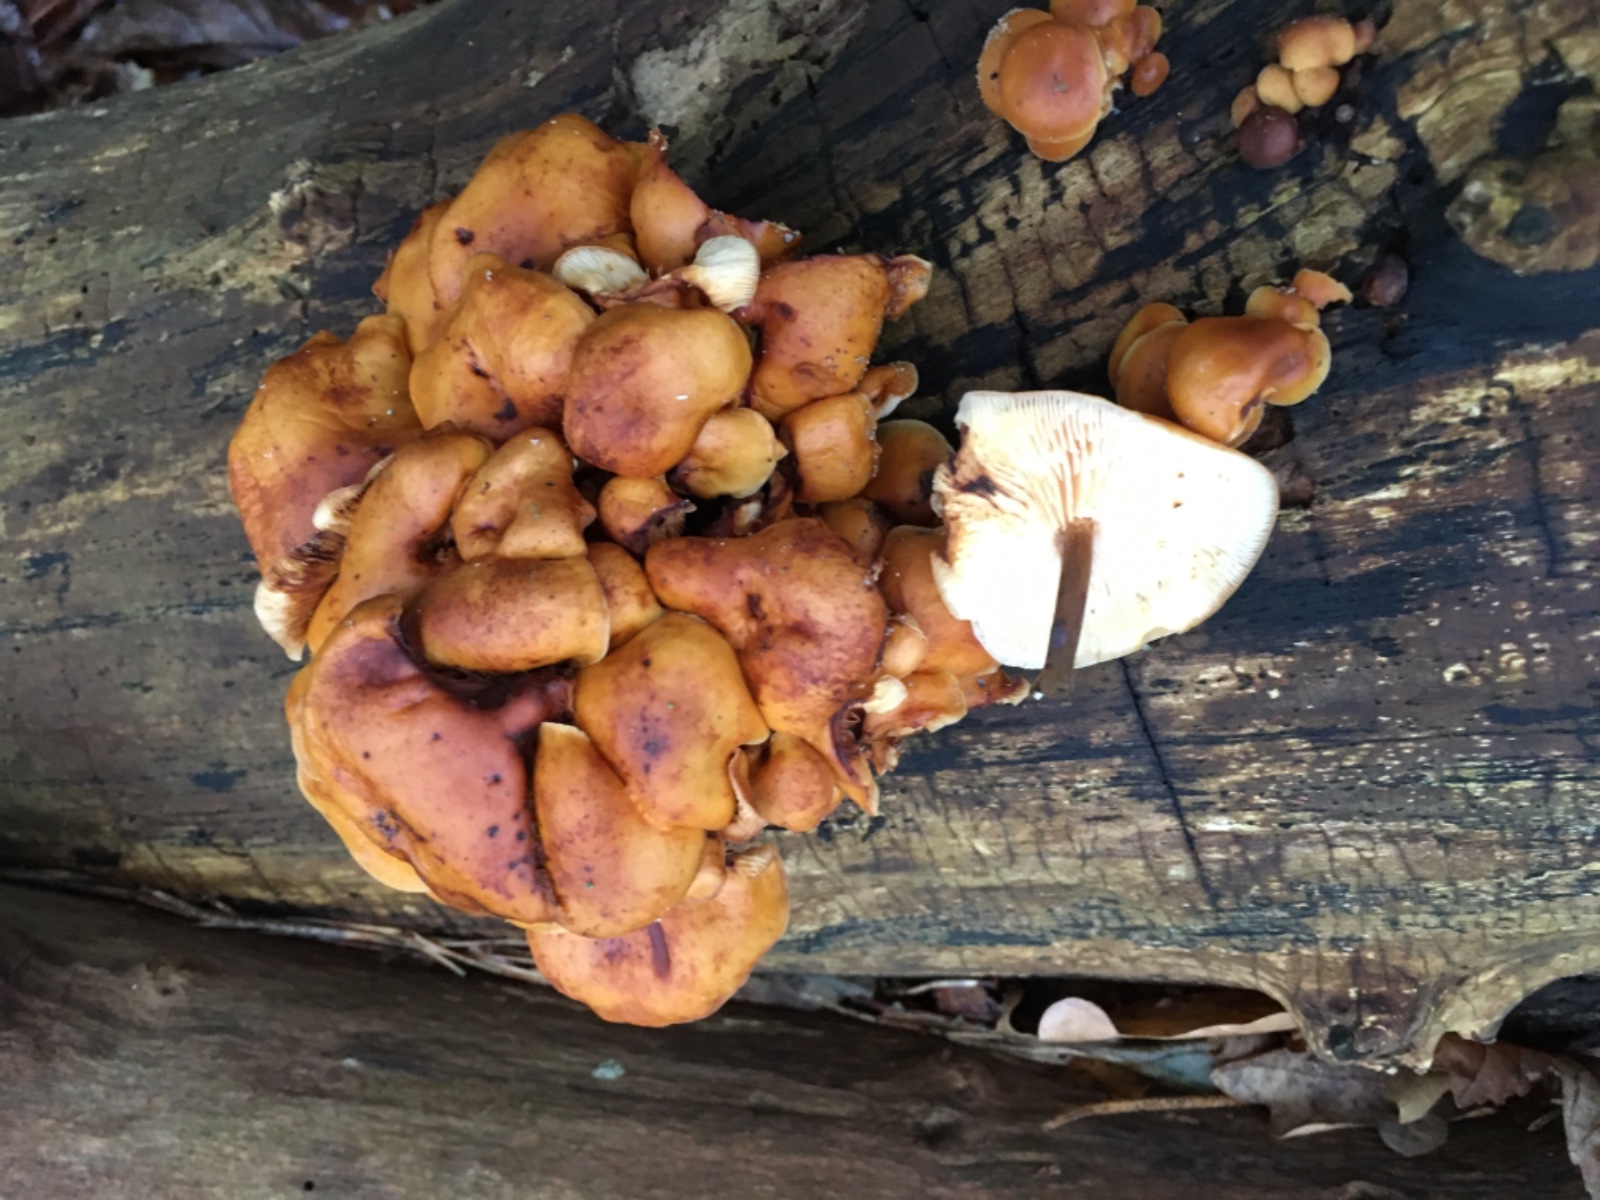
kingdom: Fungi
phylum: Basidiomycota
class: Agaricomycetes
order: Agaricales
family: Physalacriaceae
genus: Flammulina
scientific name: Flammulina velutipes
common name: gul fløjlsfod
